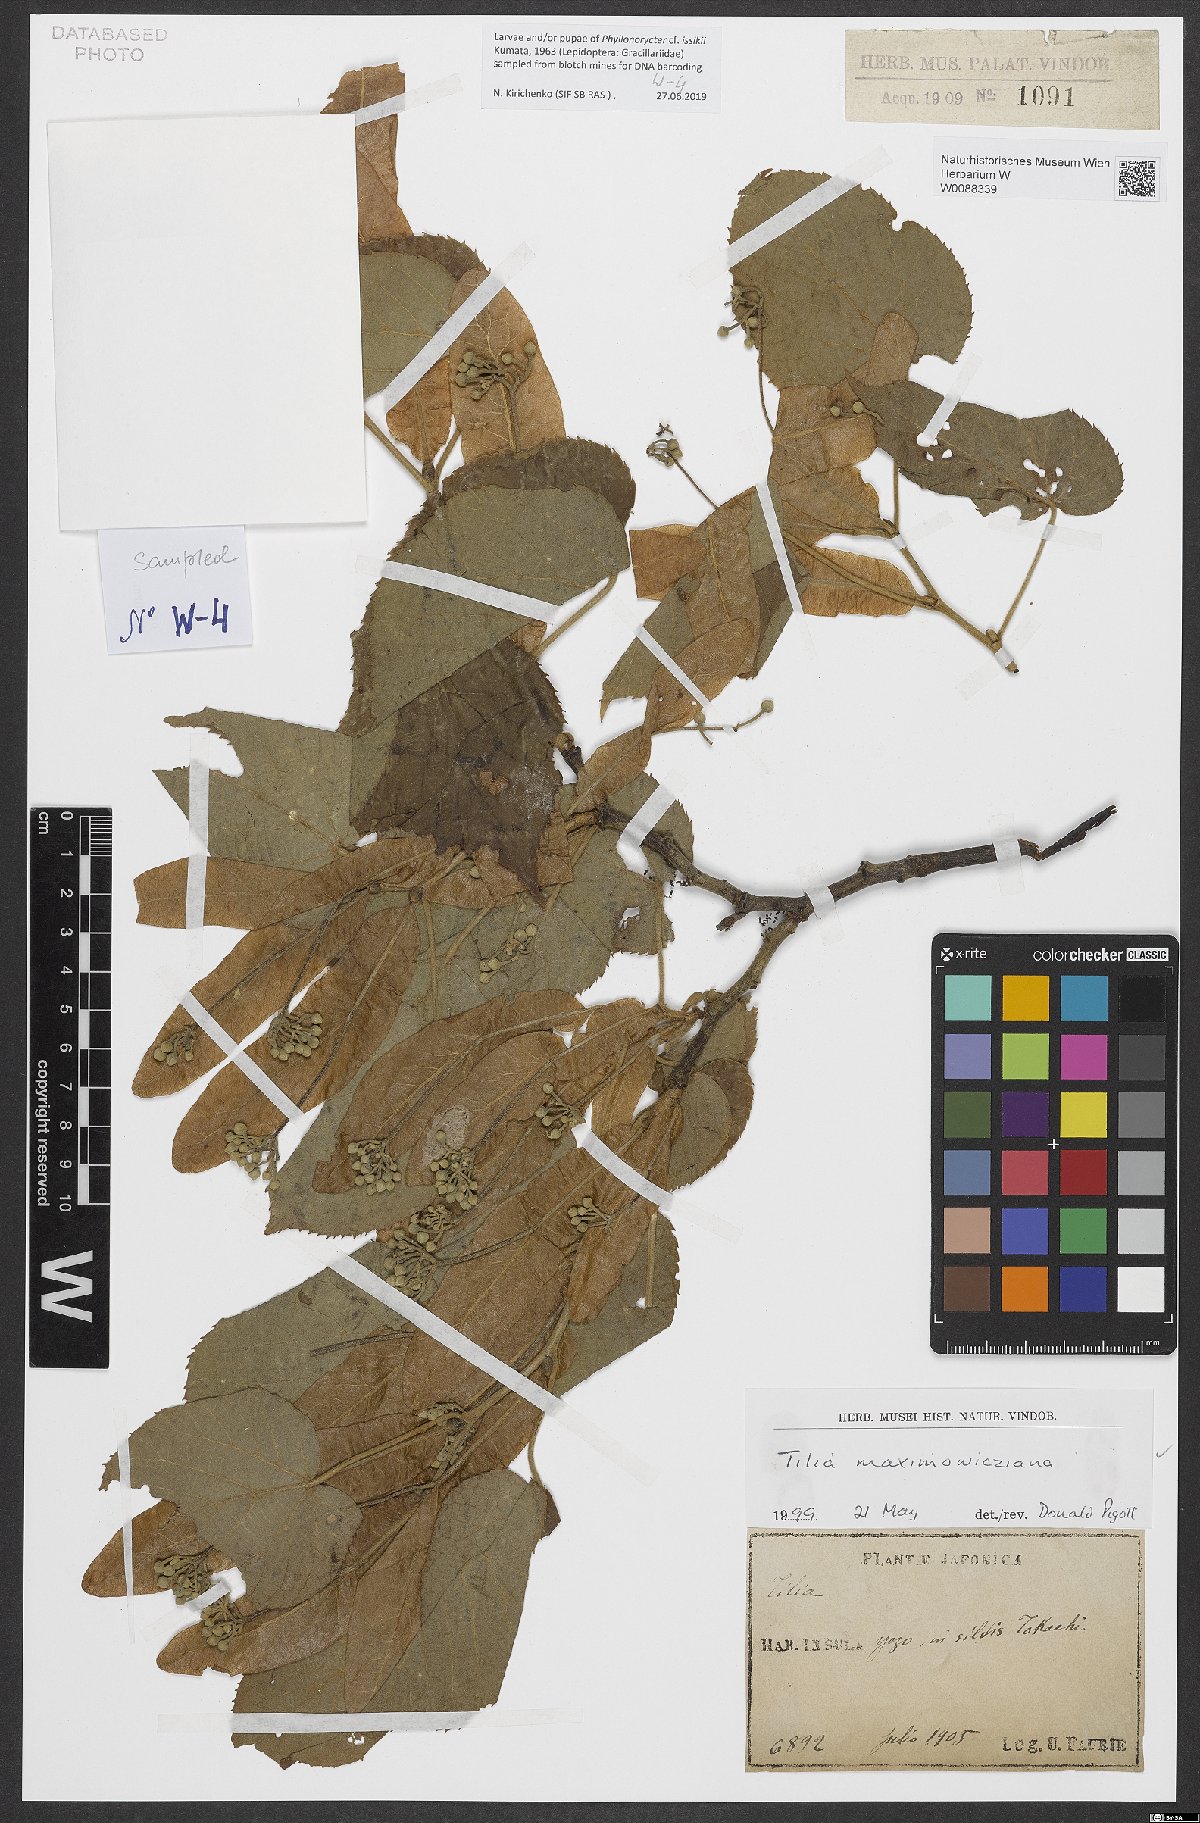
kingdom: Plantae
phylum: Tracheophyta
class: Magnoliopsida
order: Malvales
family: Malvaceae
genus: Tilia
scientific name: Tilia maximowicziana
